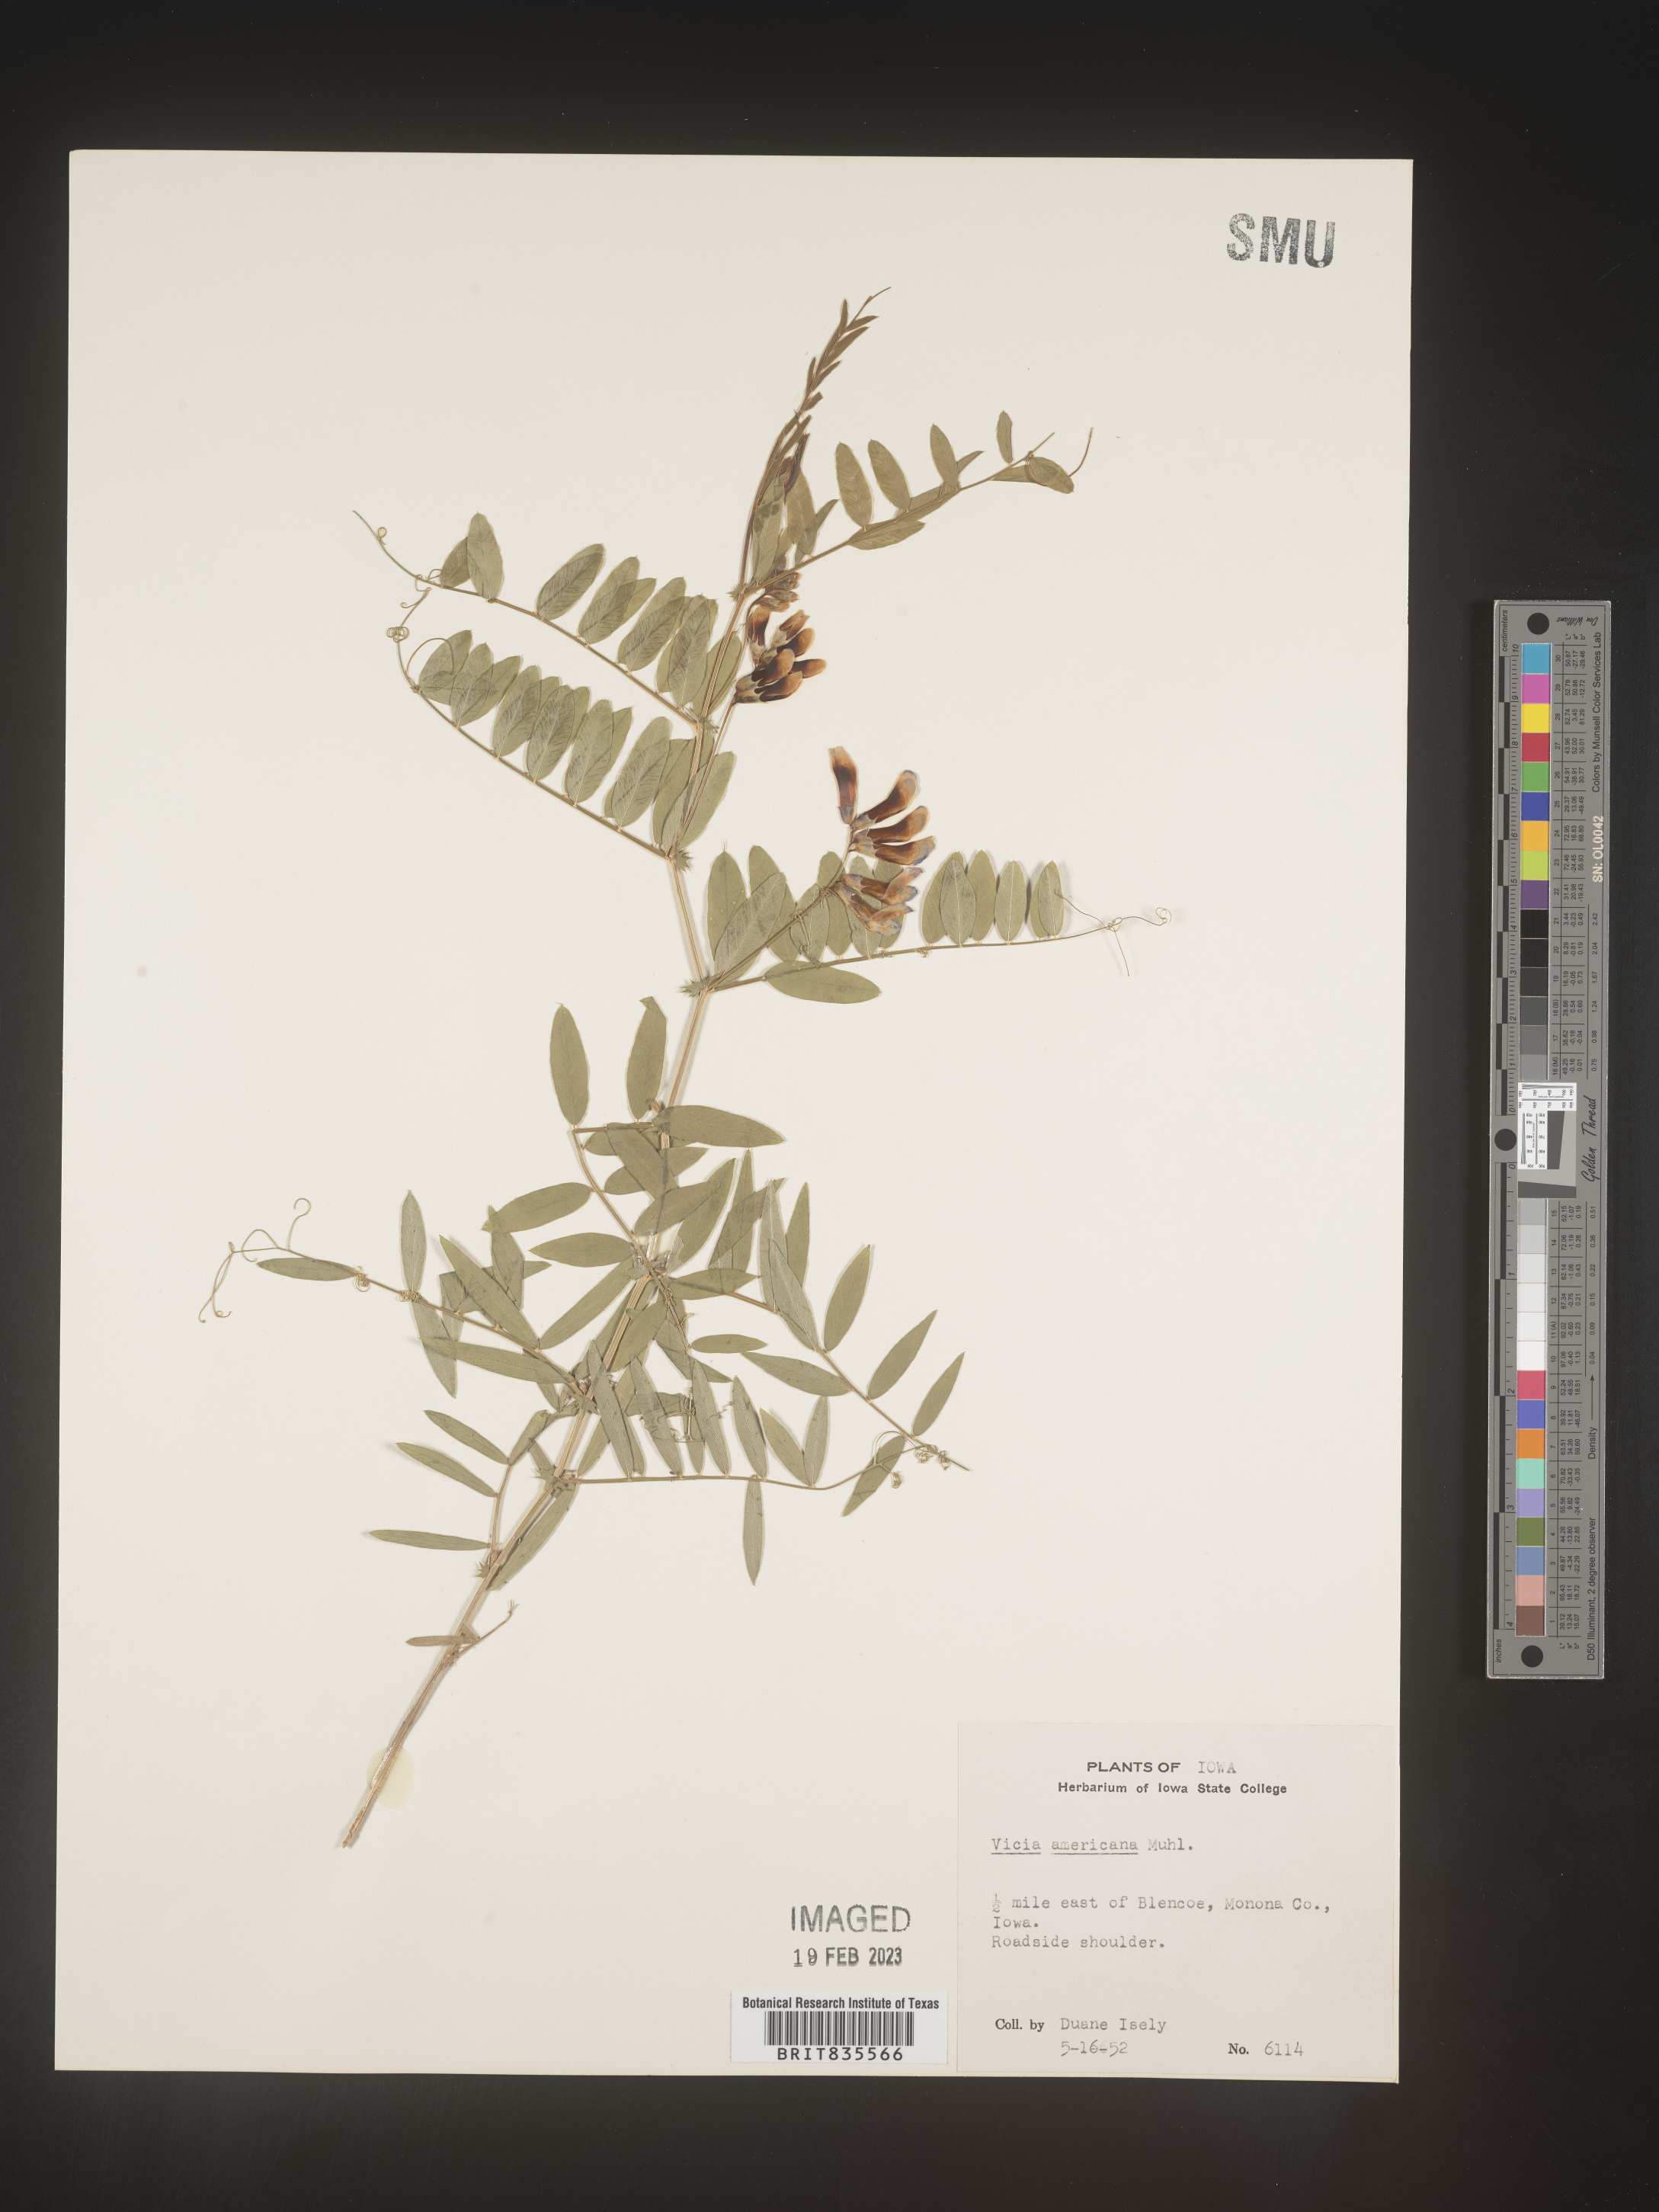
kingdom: Plantae
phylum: Tracheophyta
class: Magnoliopsida
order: Fabales
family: Fabaceae
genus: Vicia
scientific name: Vicia americana
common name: American vetch
